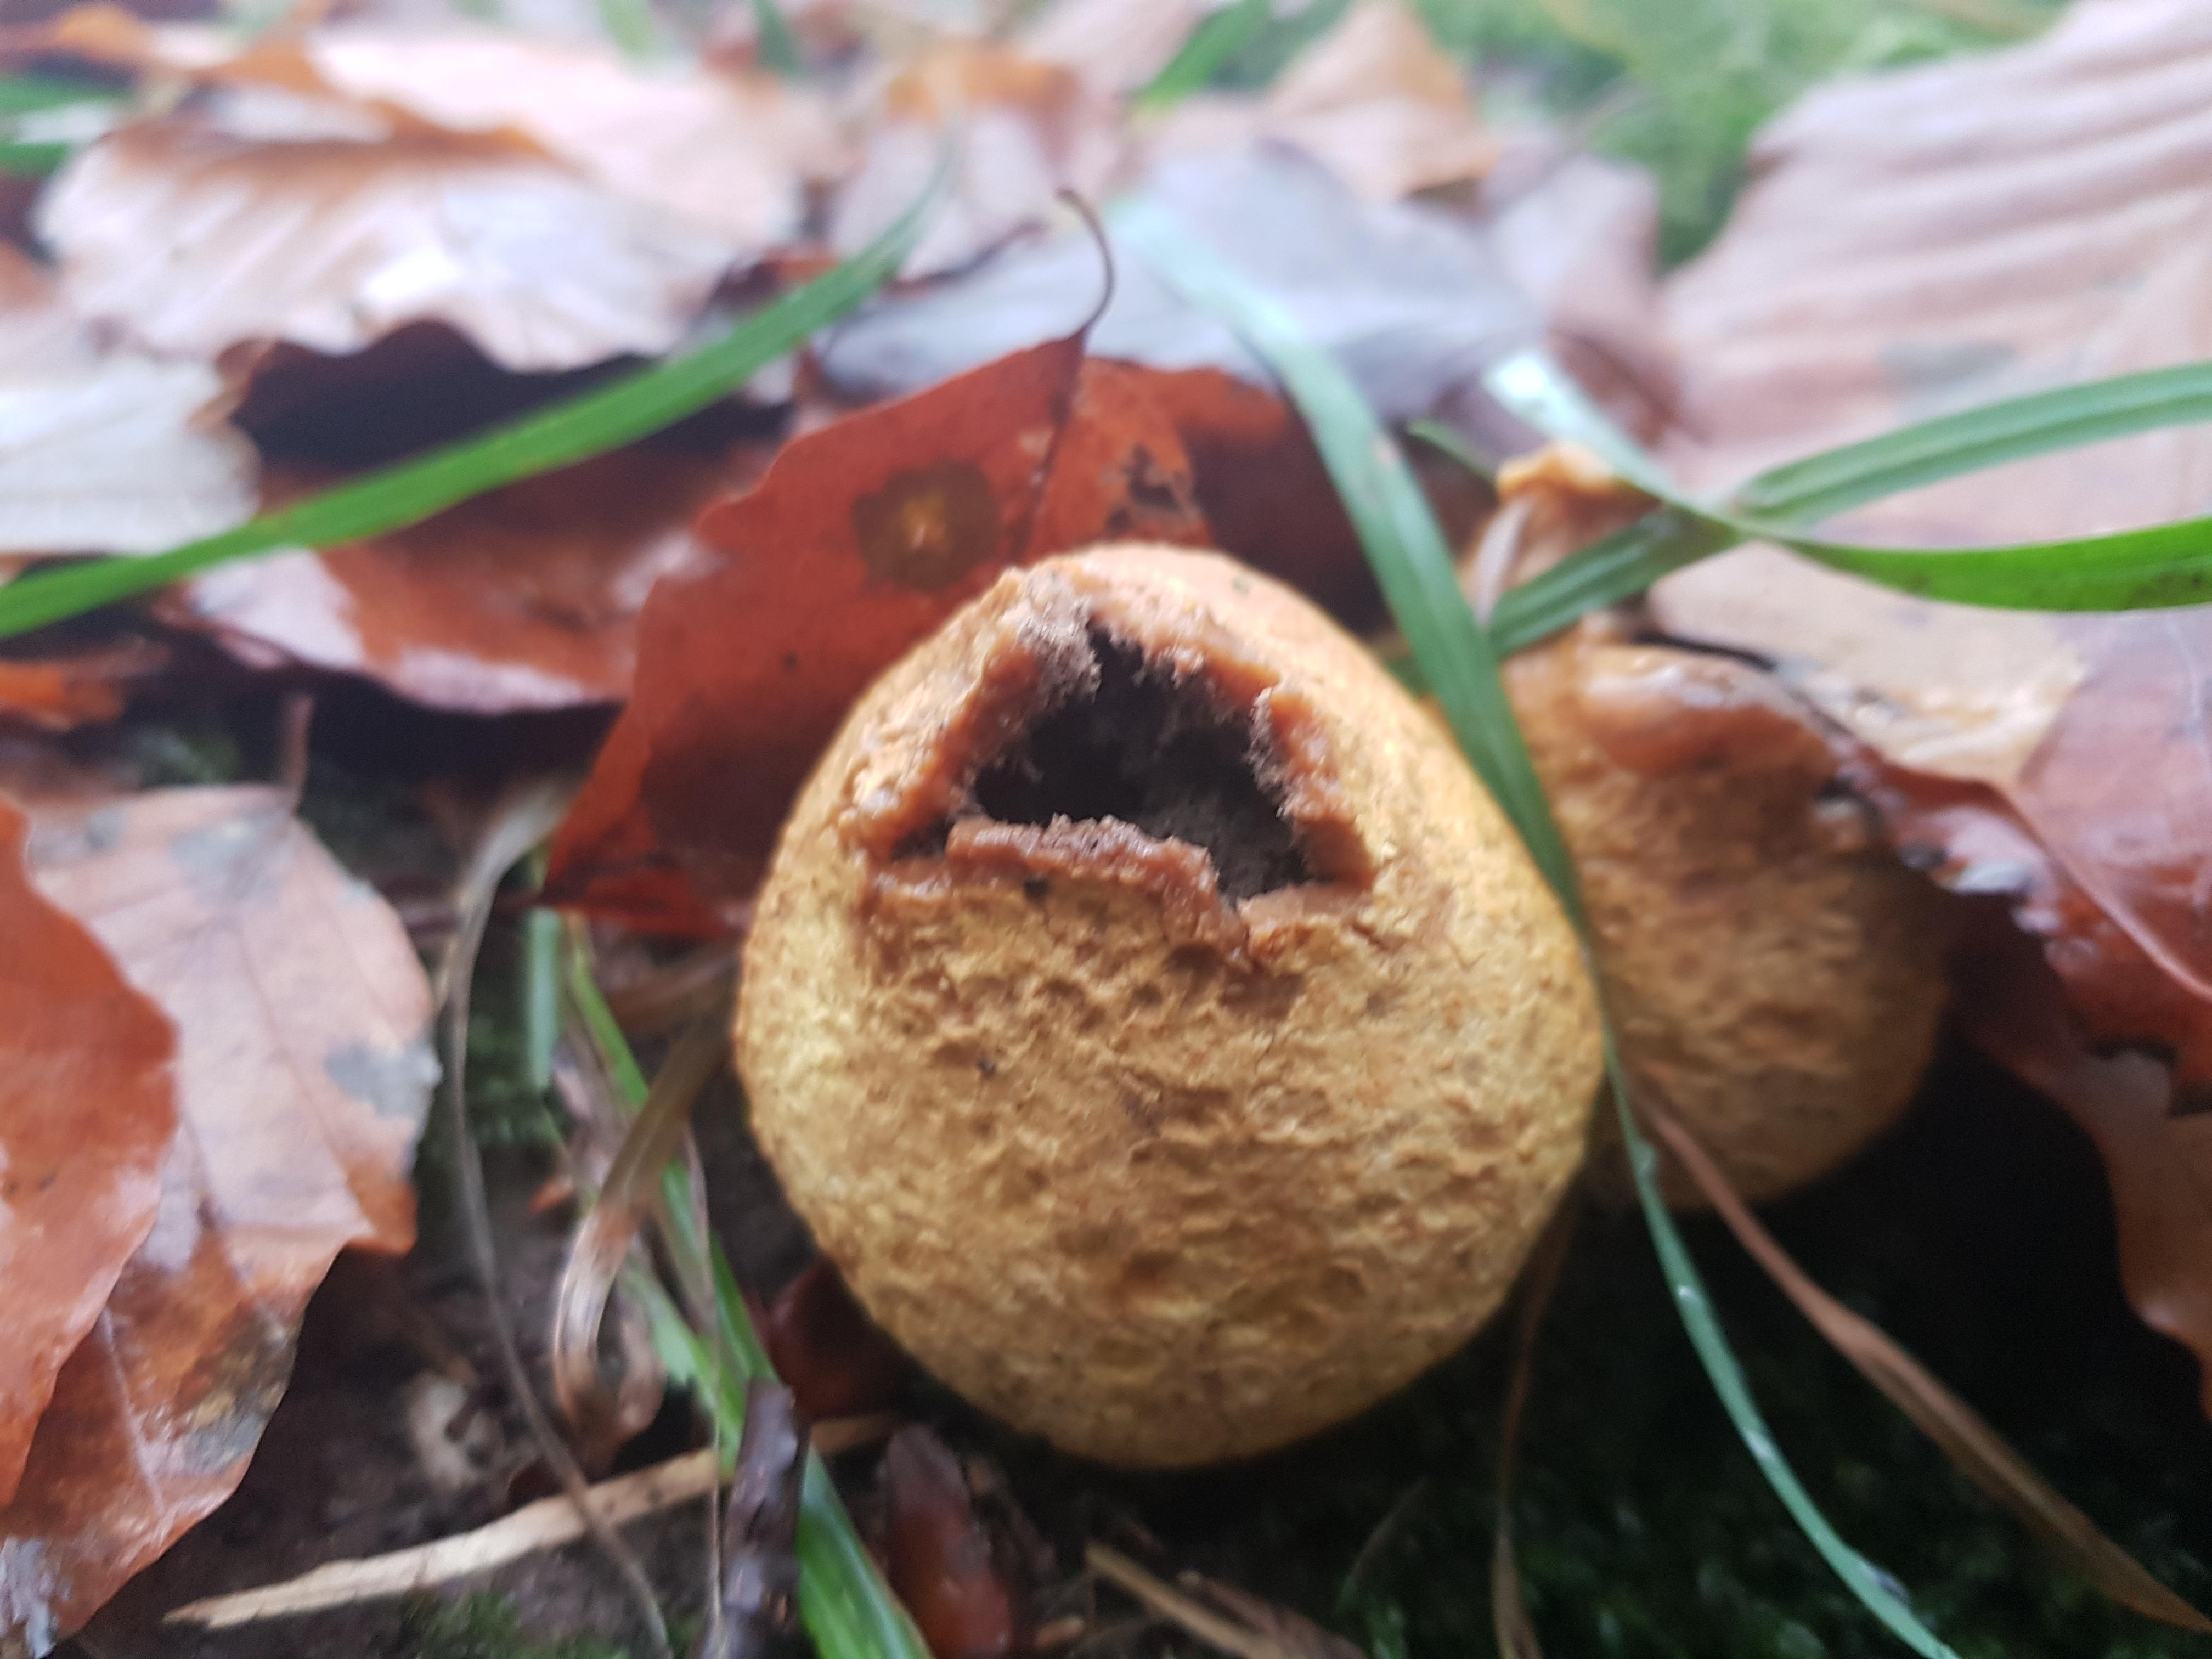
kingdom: Fungi
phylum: Basidiomycota
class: Agaricomycetes
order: Boletales
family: Sclerodermataceae
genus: Scleroderma
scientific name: Scleroderma citrinum
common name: almindelig bruskbold
